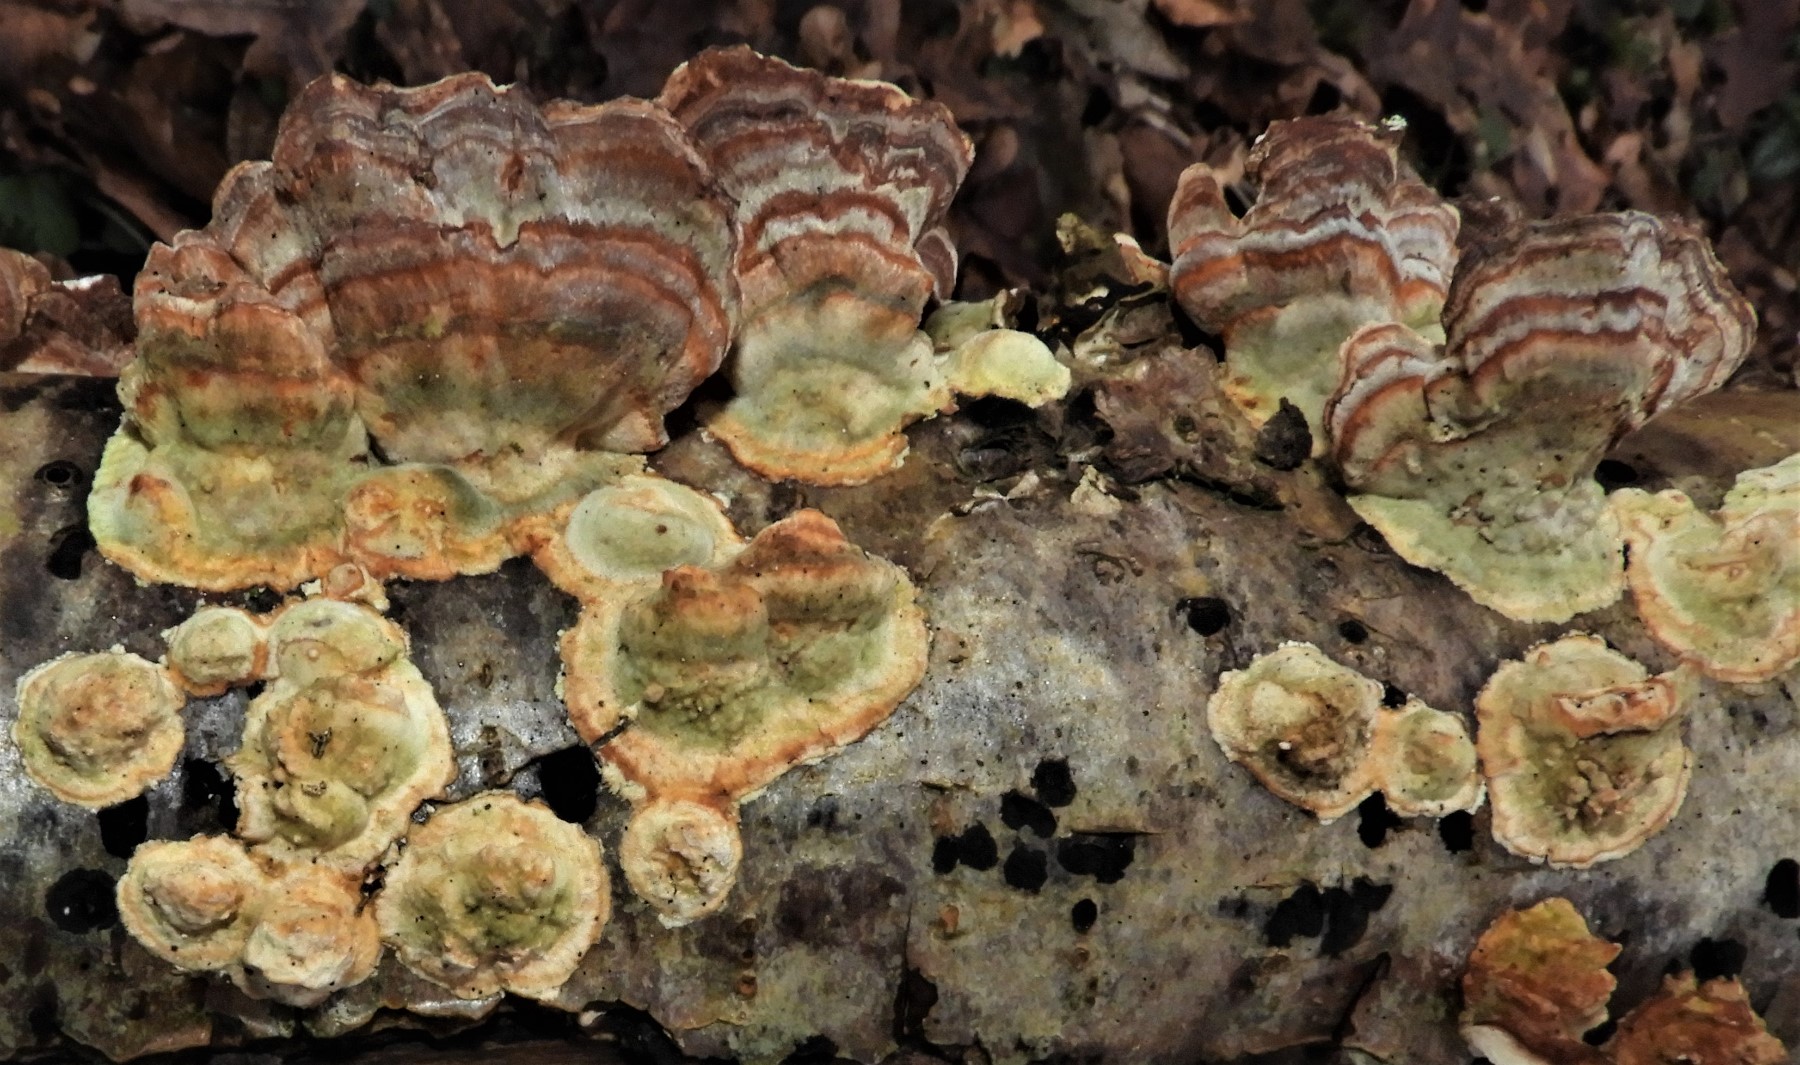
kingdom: Fungi
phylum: Basidiomycota
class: Agaricomycetes
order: Polyporales
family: Polyporaceae
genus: Trametes
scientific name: Trametes versicolor
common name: broget læderporesvamp
